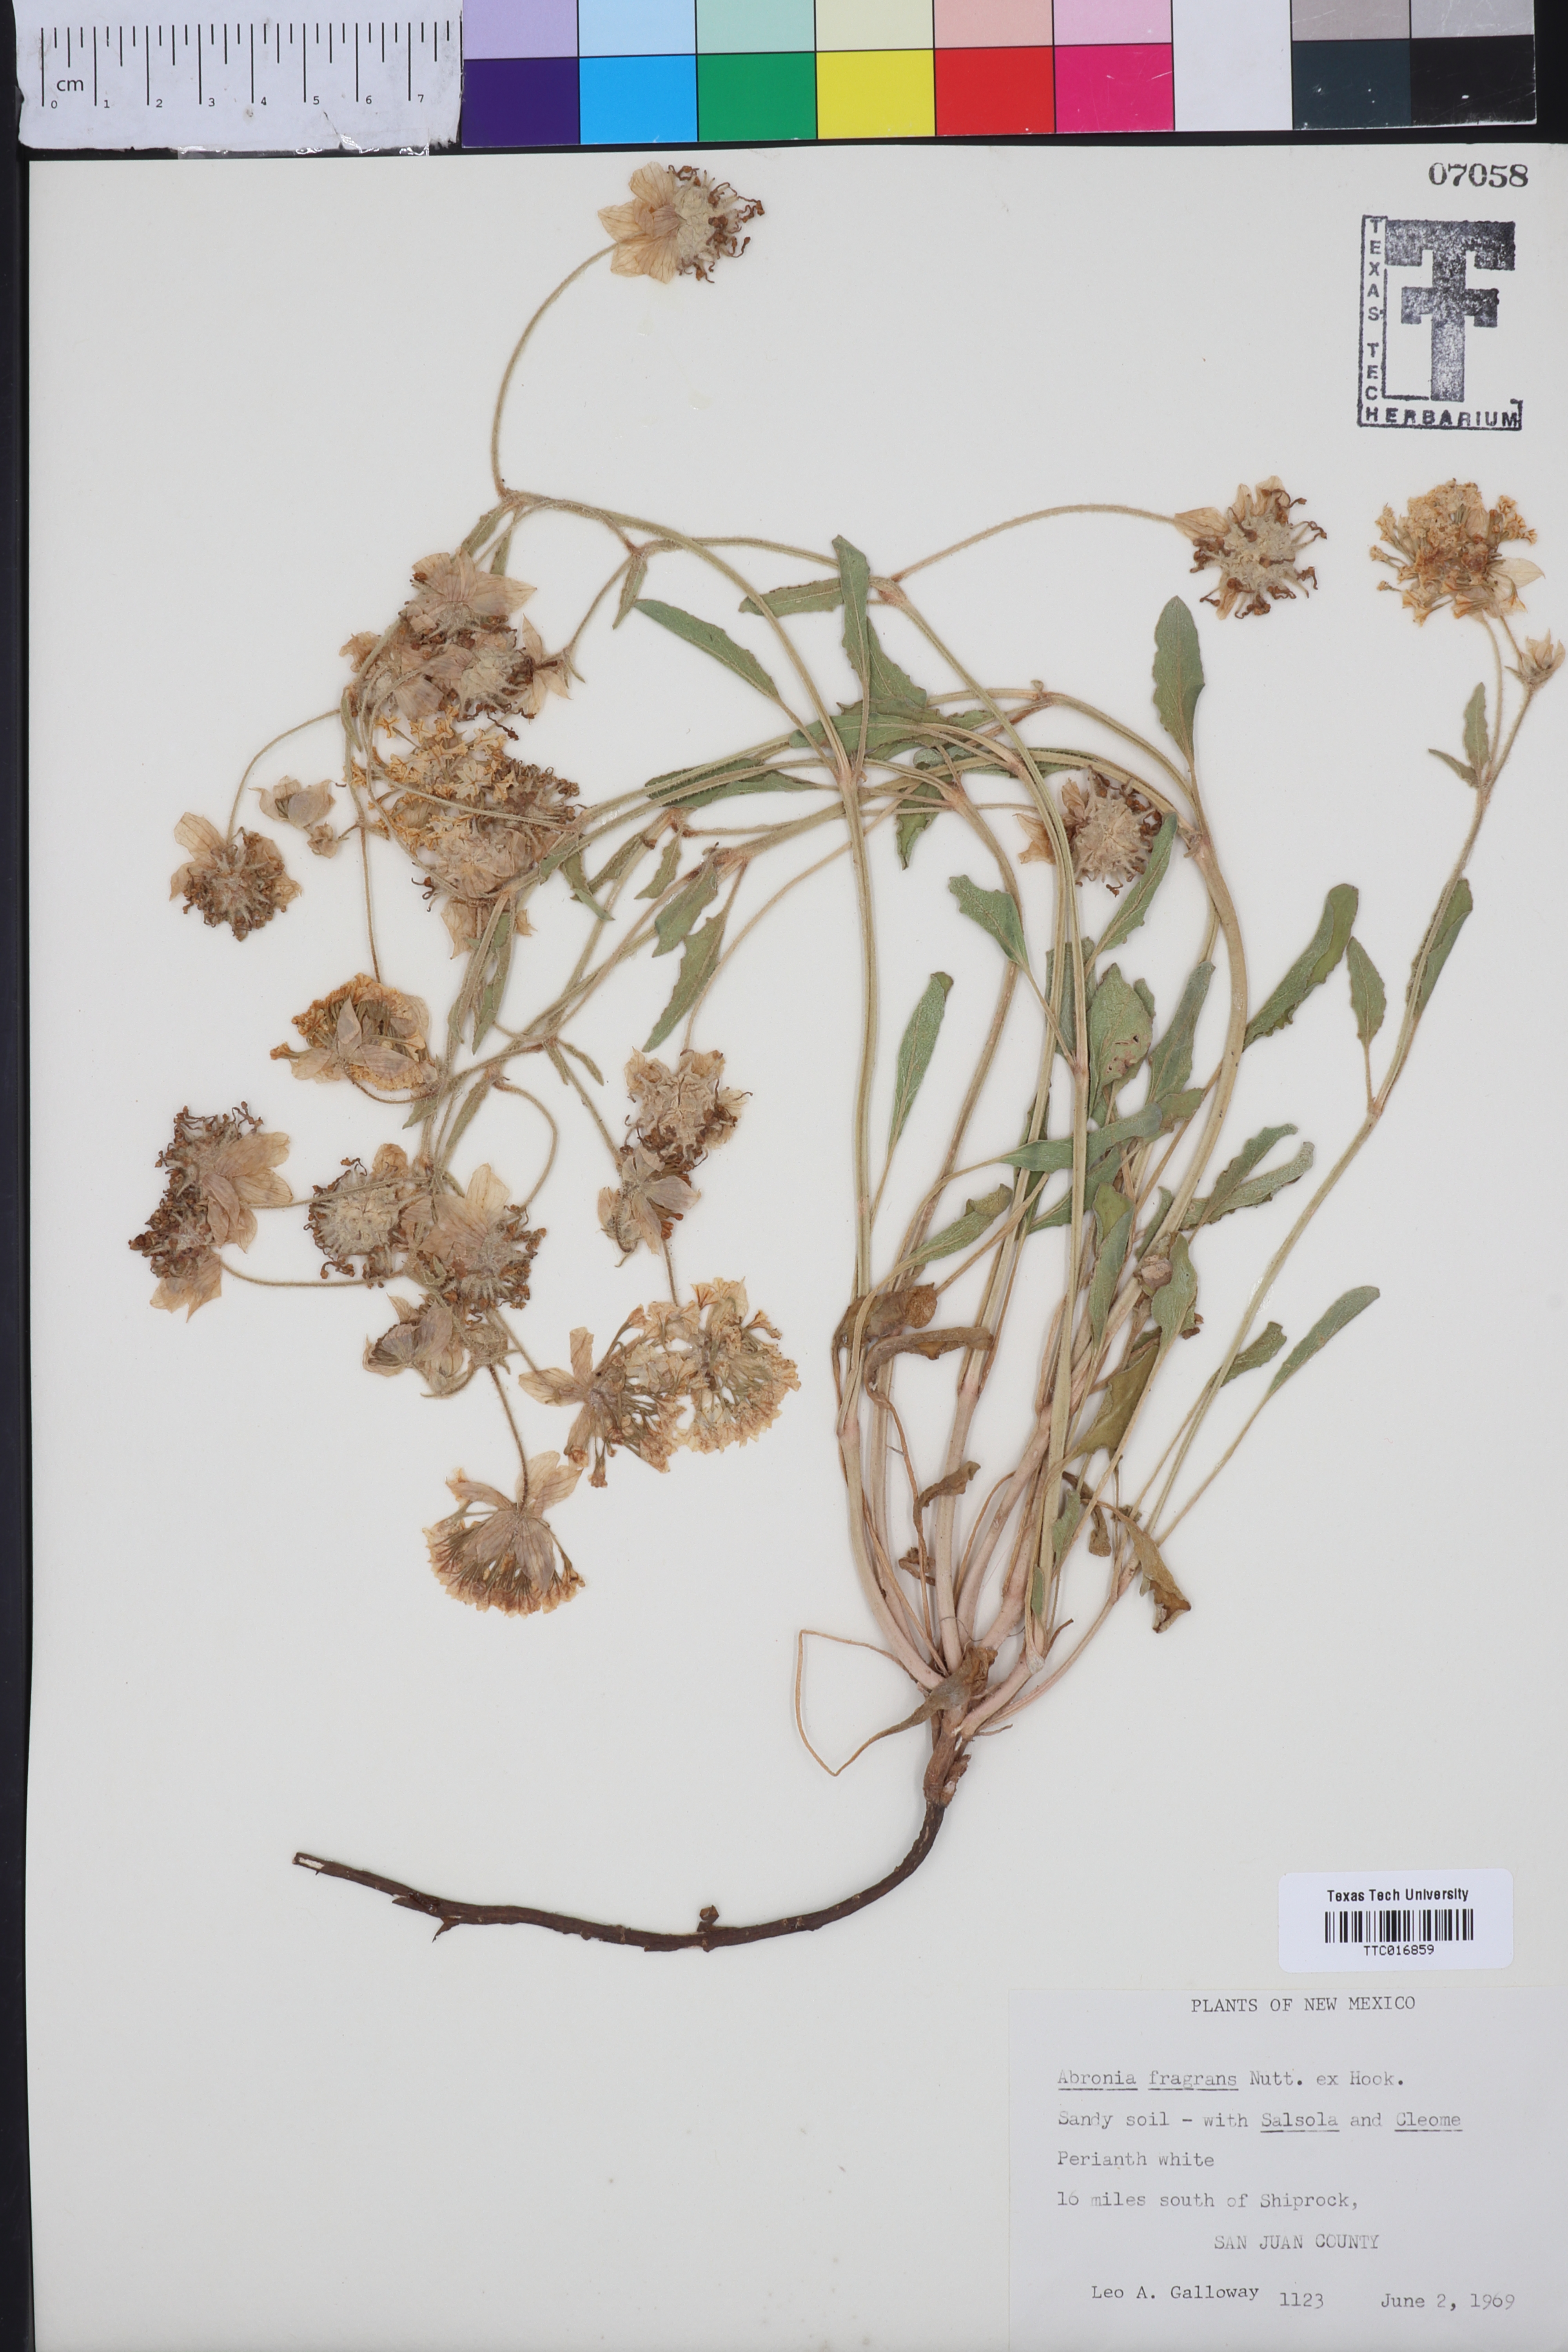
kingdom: Plantae
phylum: Tracheophyta
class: Magnoliopsida
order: Caryophyllales
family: Nyctaginaceae
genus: Abronia
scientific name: Abronia fragrans
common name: Fragrant sand-verbena
